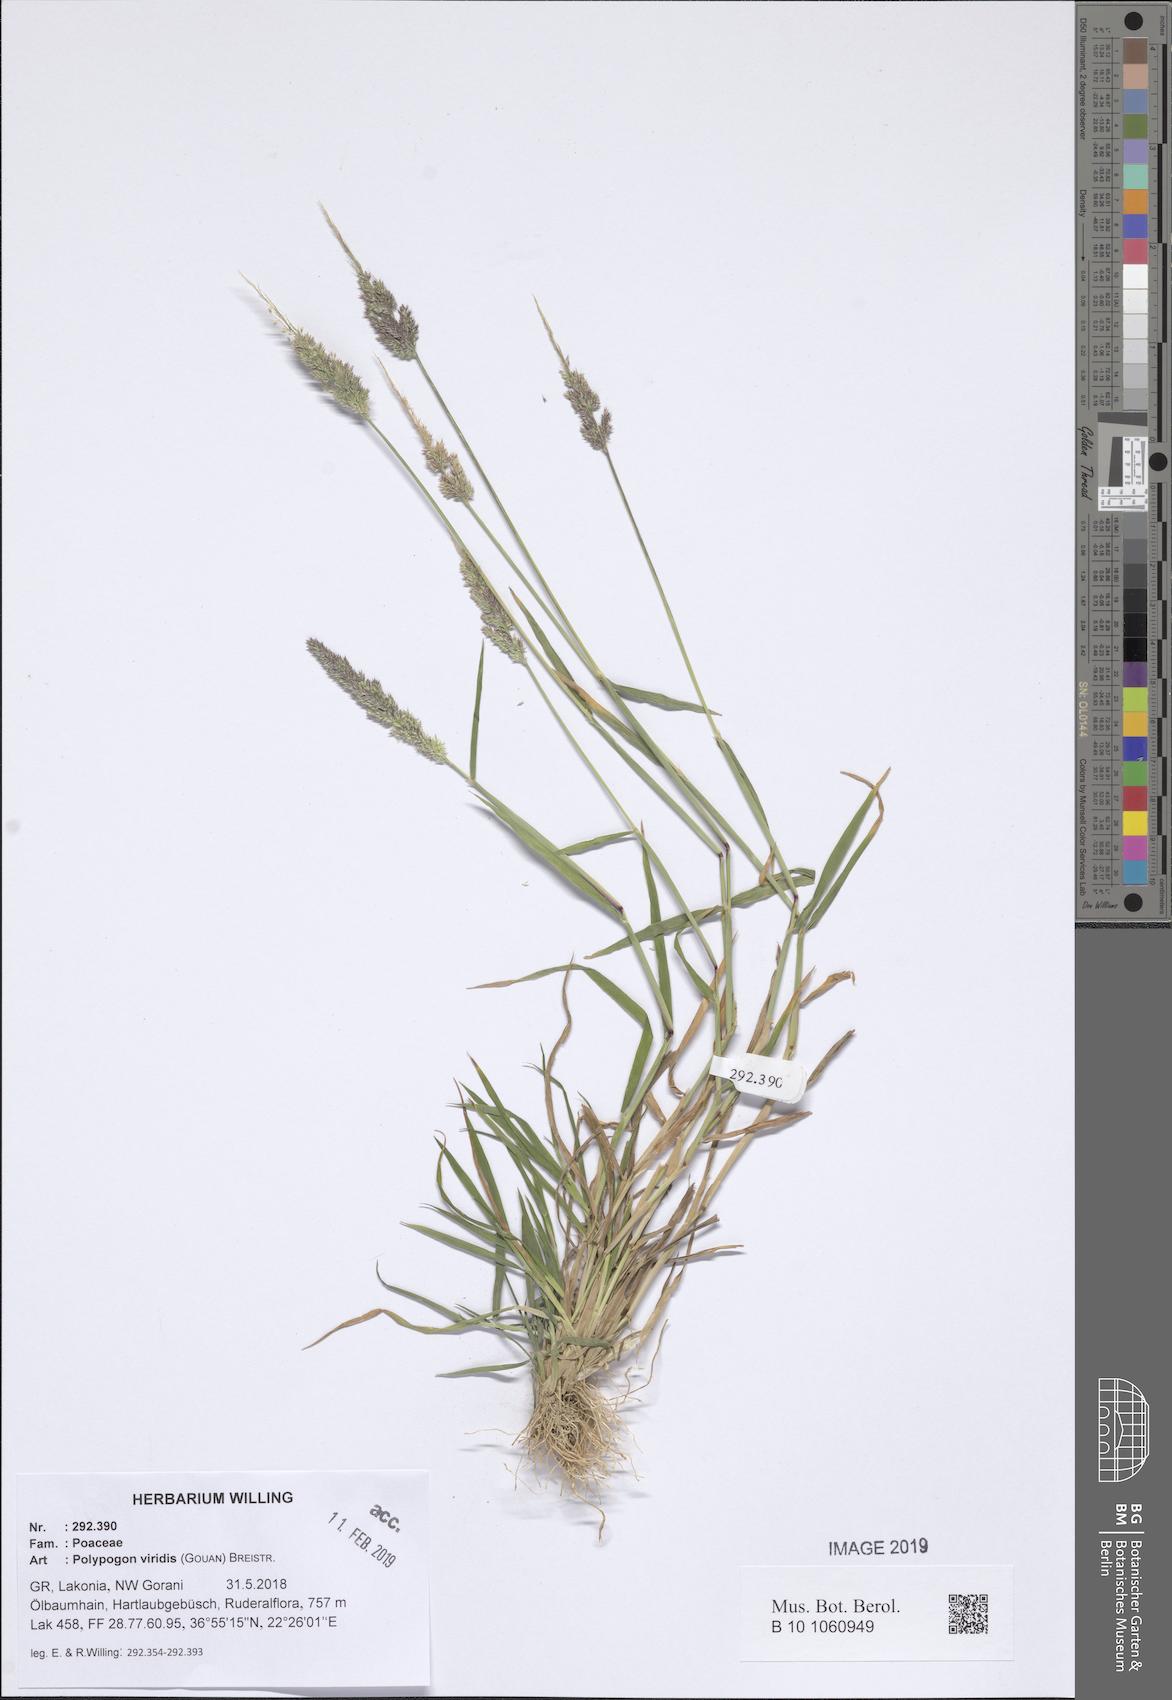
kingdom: Plantae
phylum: Tracheophyta
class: Liliopsida
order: Poales
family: Poaceae
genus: Polypogon
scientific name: Polypogon viridis
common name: Water bent
